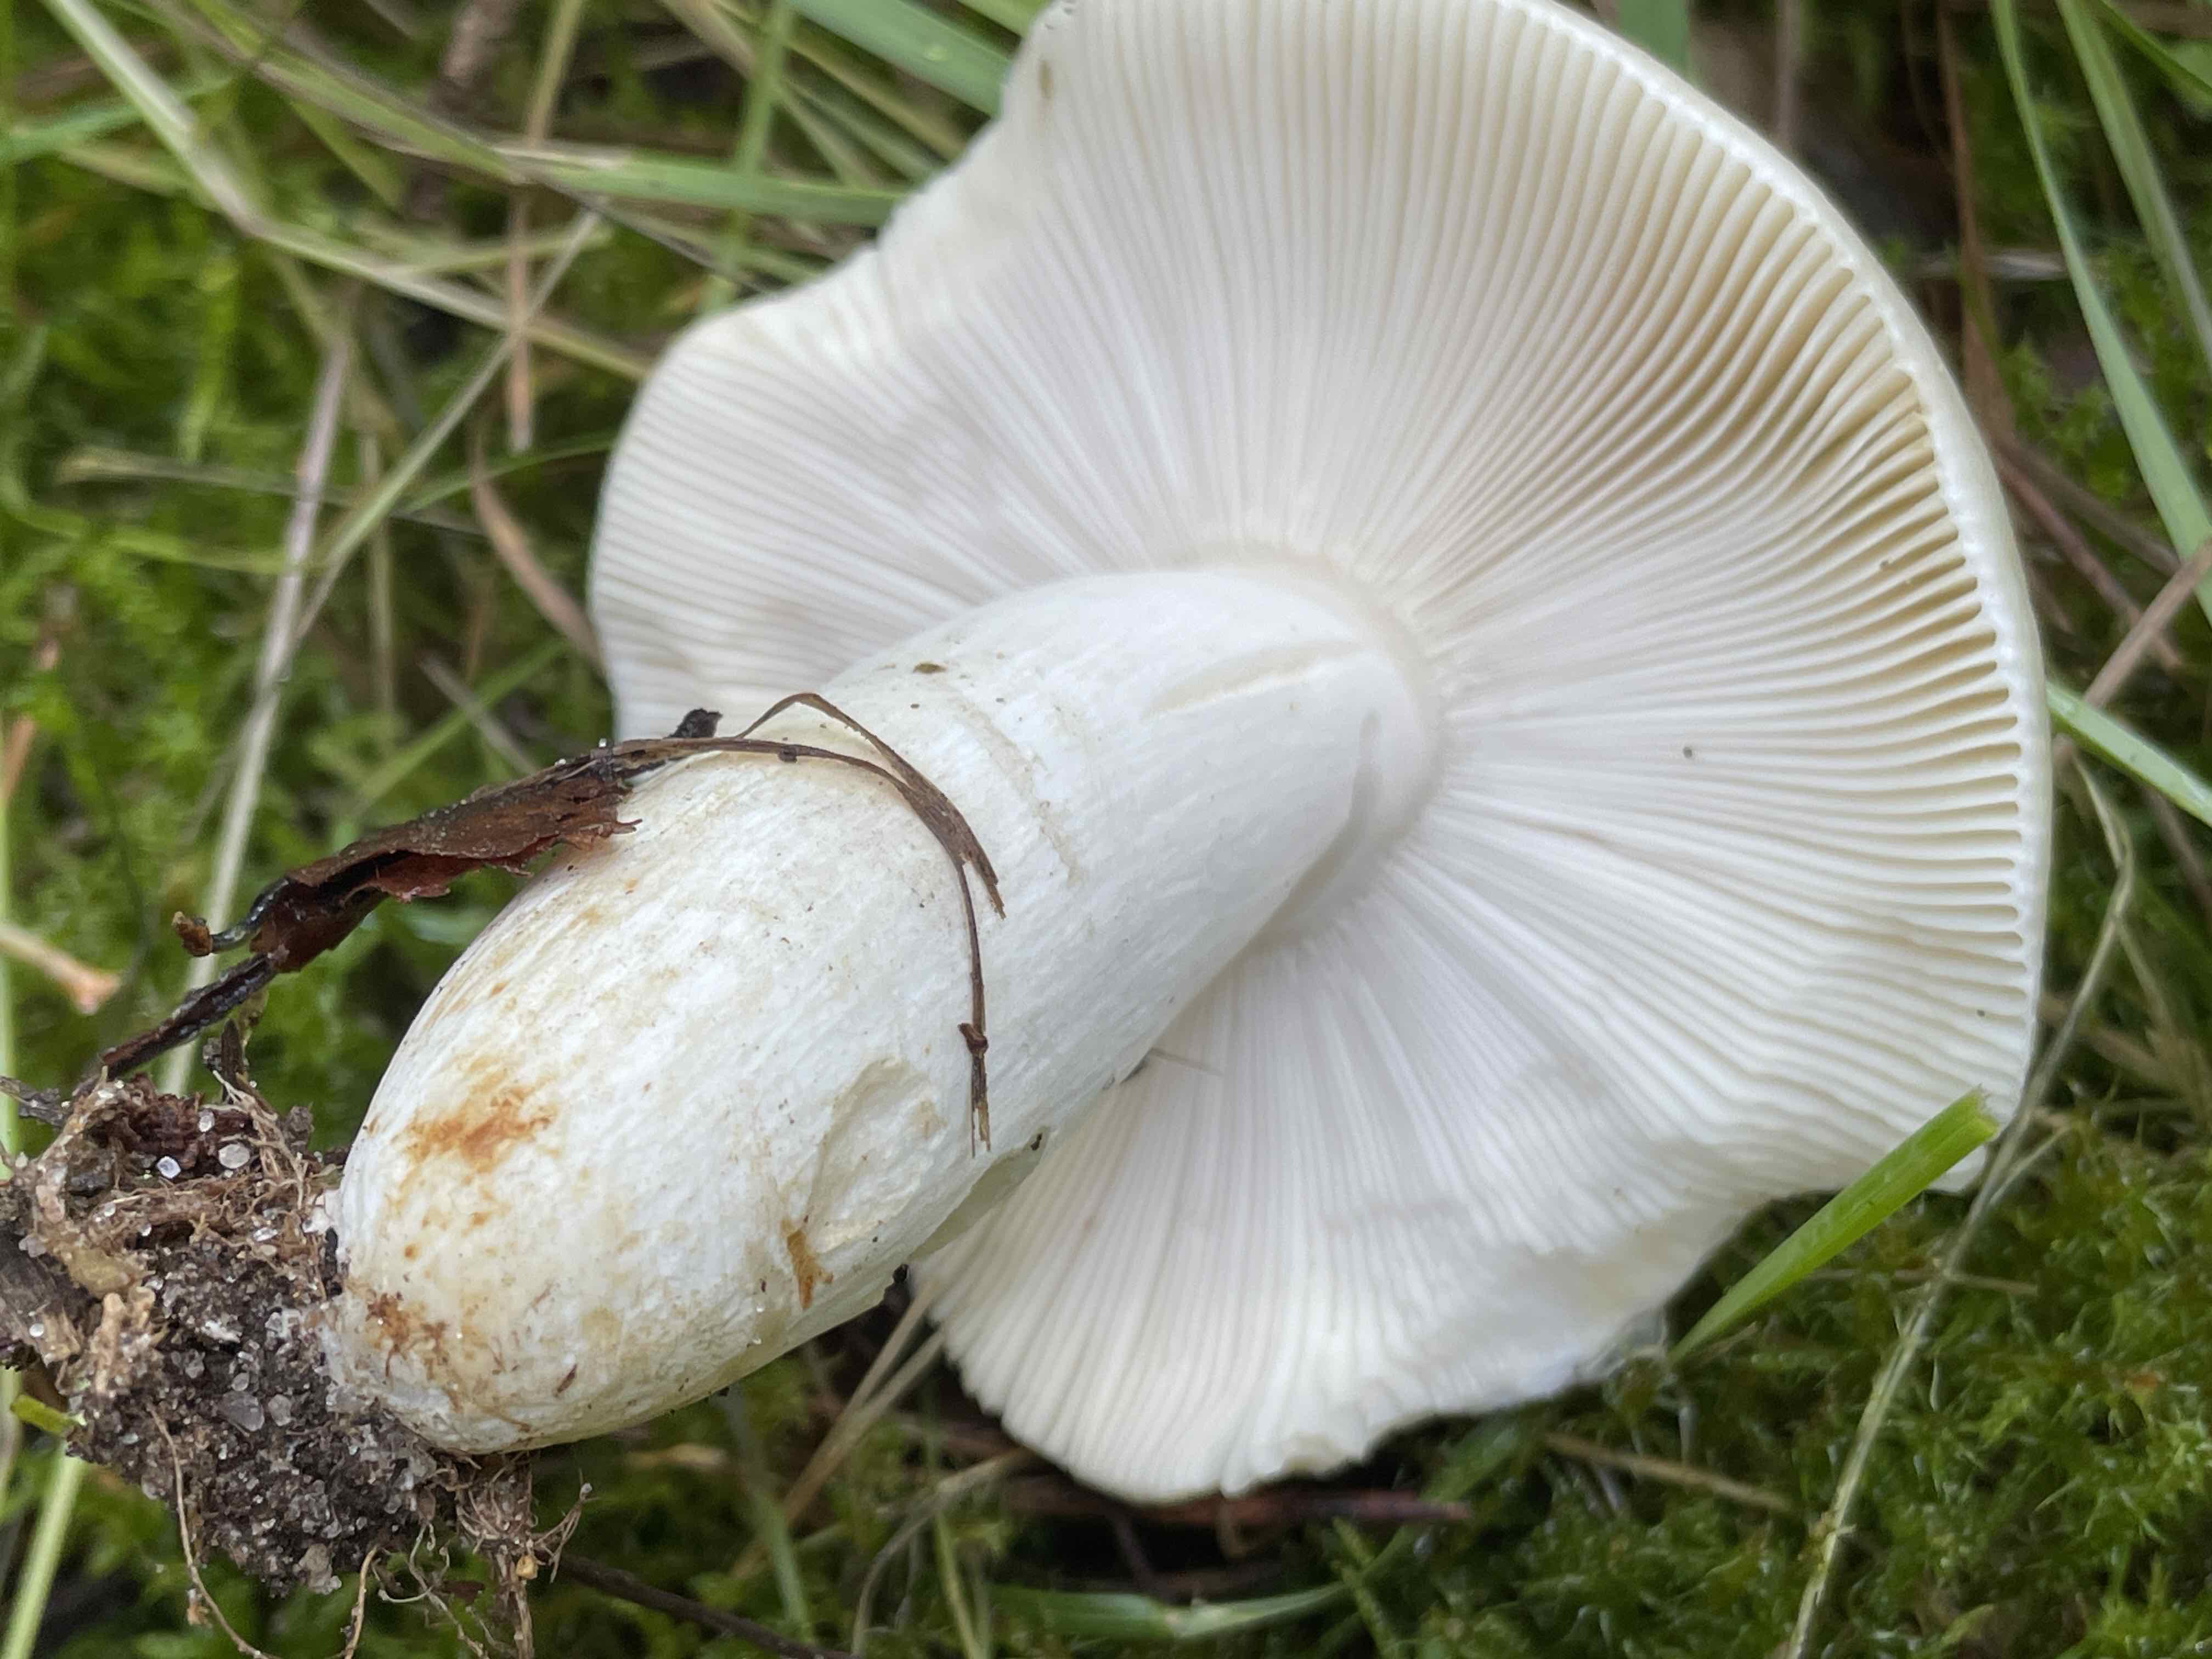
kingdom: Fungi
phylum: Basidiomycota
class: Agaricomycetes
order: Russulales
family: Russulaceae
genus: Russula
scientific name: Russula aeruginea
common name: græsgrøn skørhat
